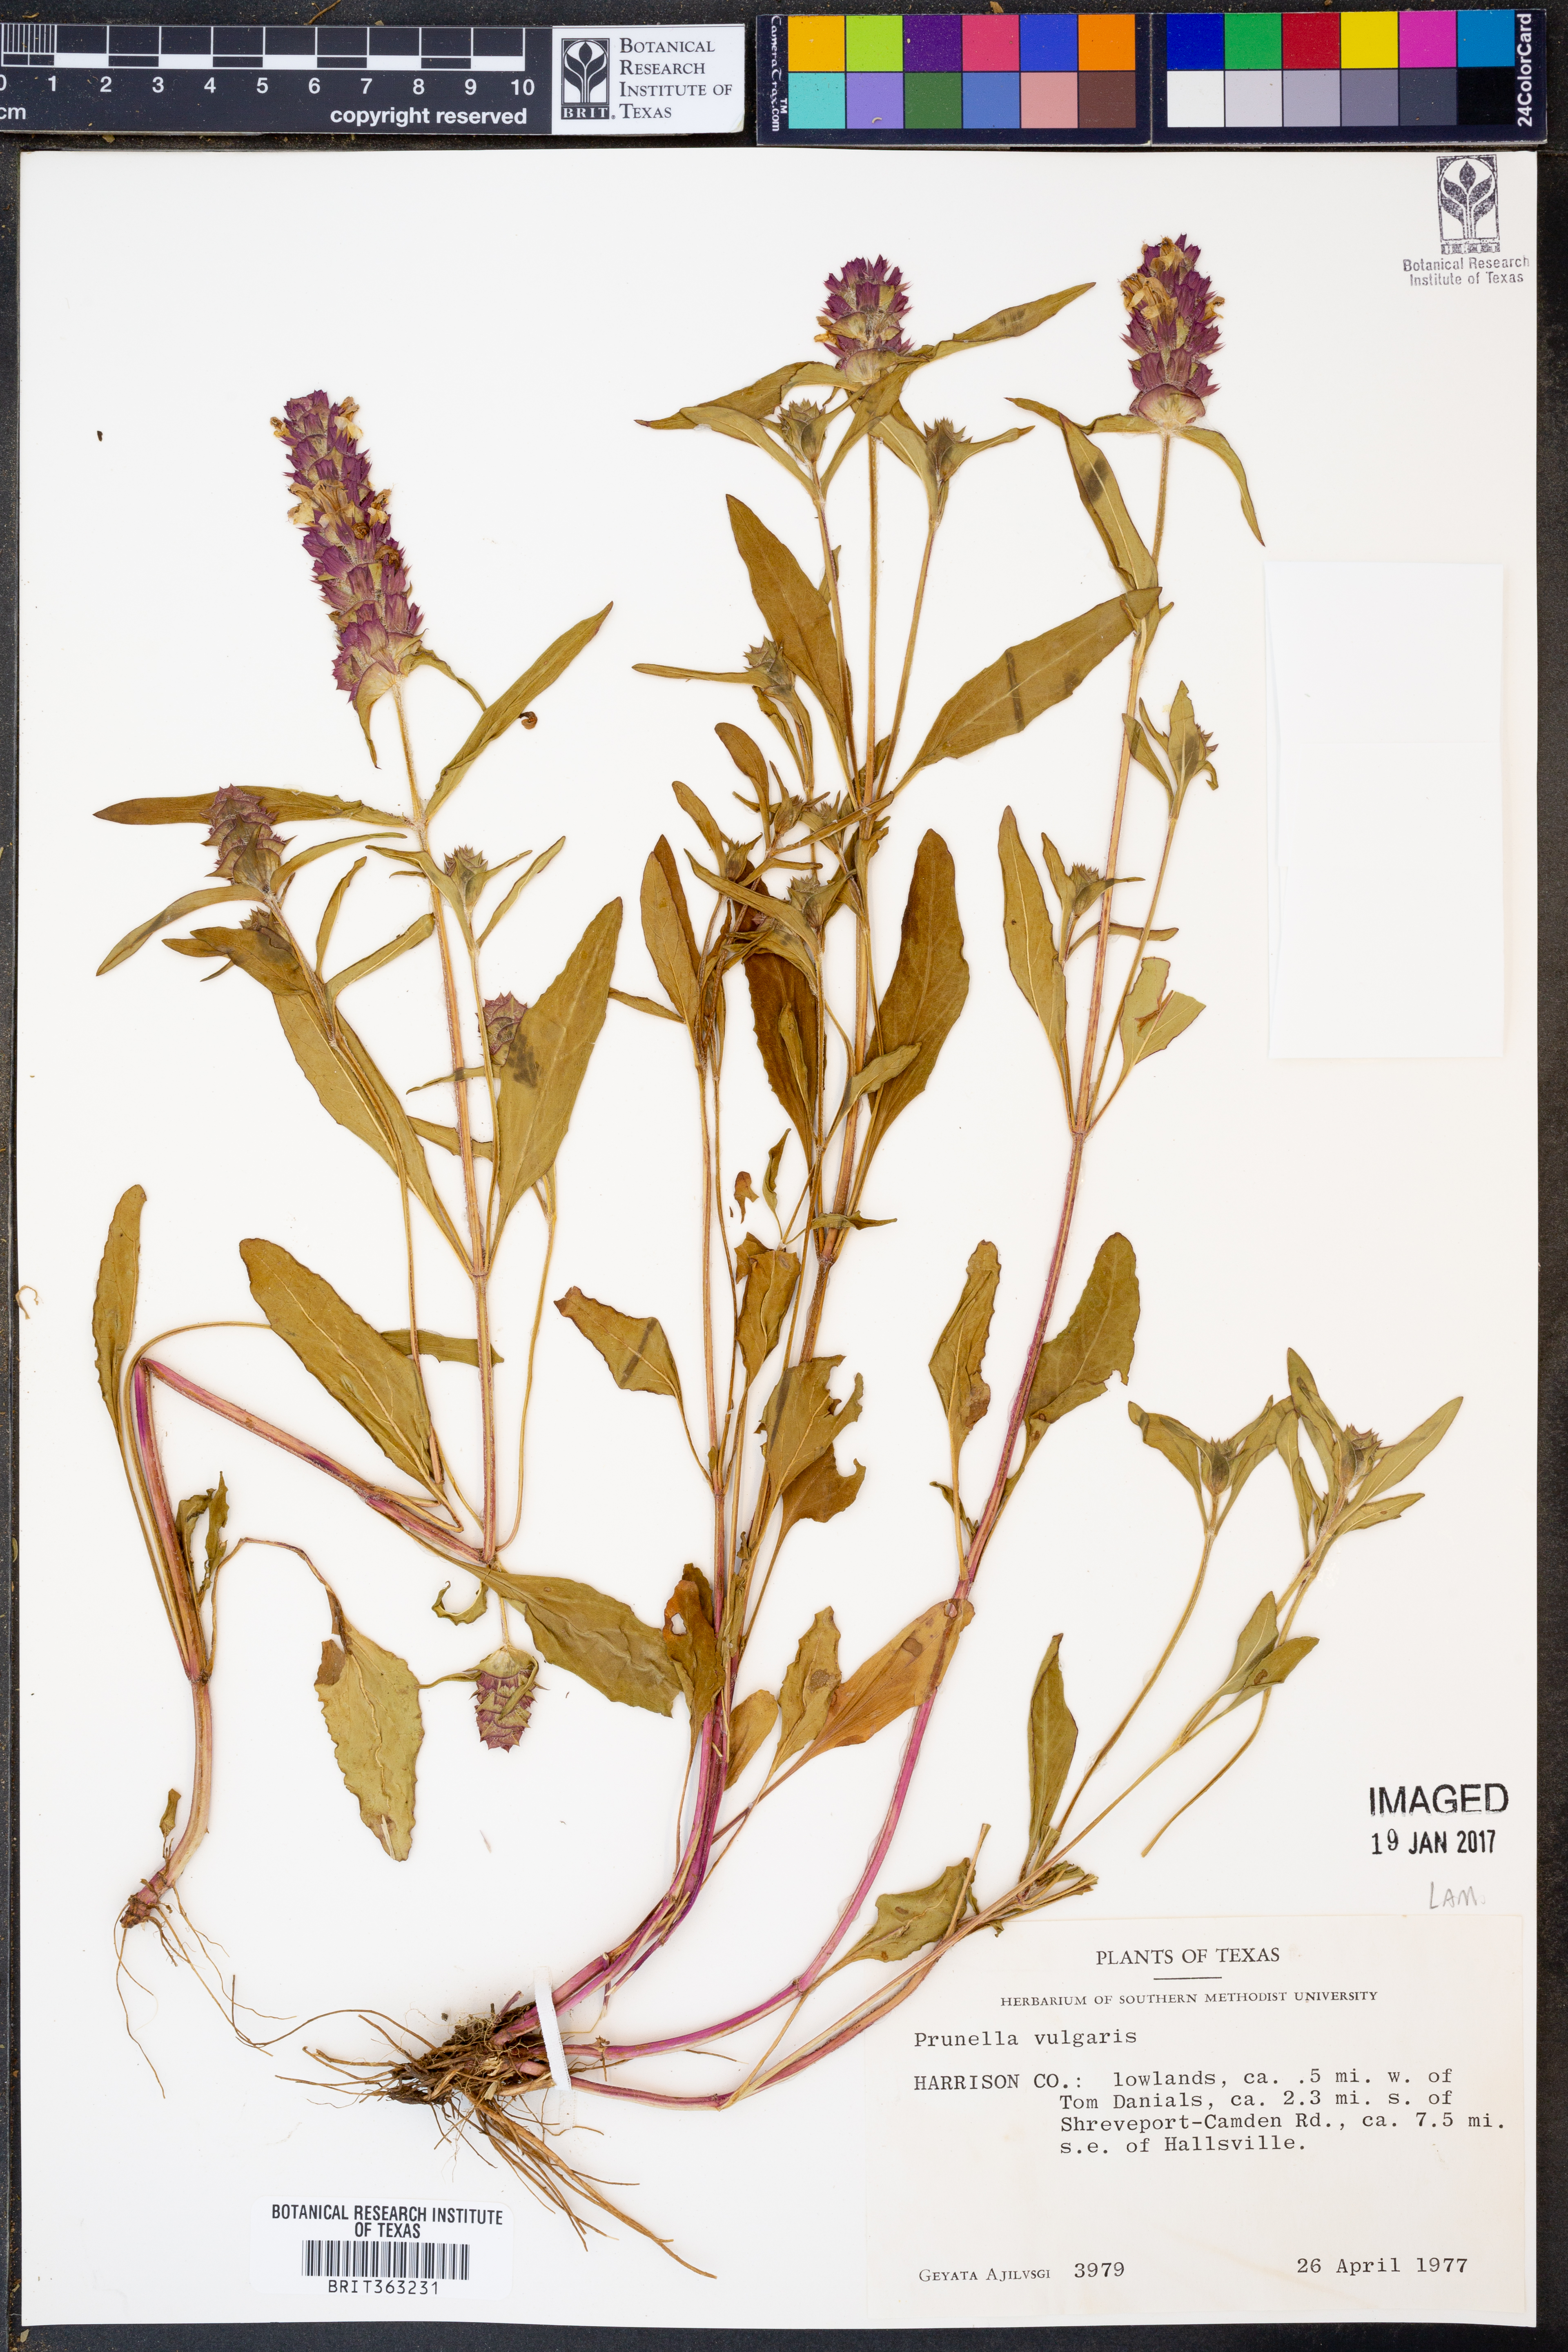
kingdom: Plantae
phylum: Tracheophyta
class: Magnoliopsida
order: Lamiales
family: Lamiaceae
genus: Prunella
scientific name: Prunella vulgaris
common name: Heal-all
